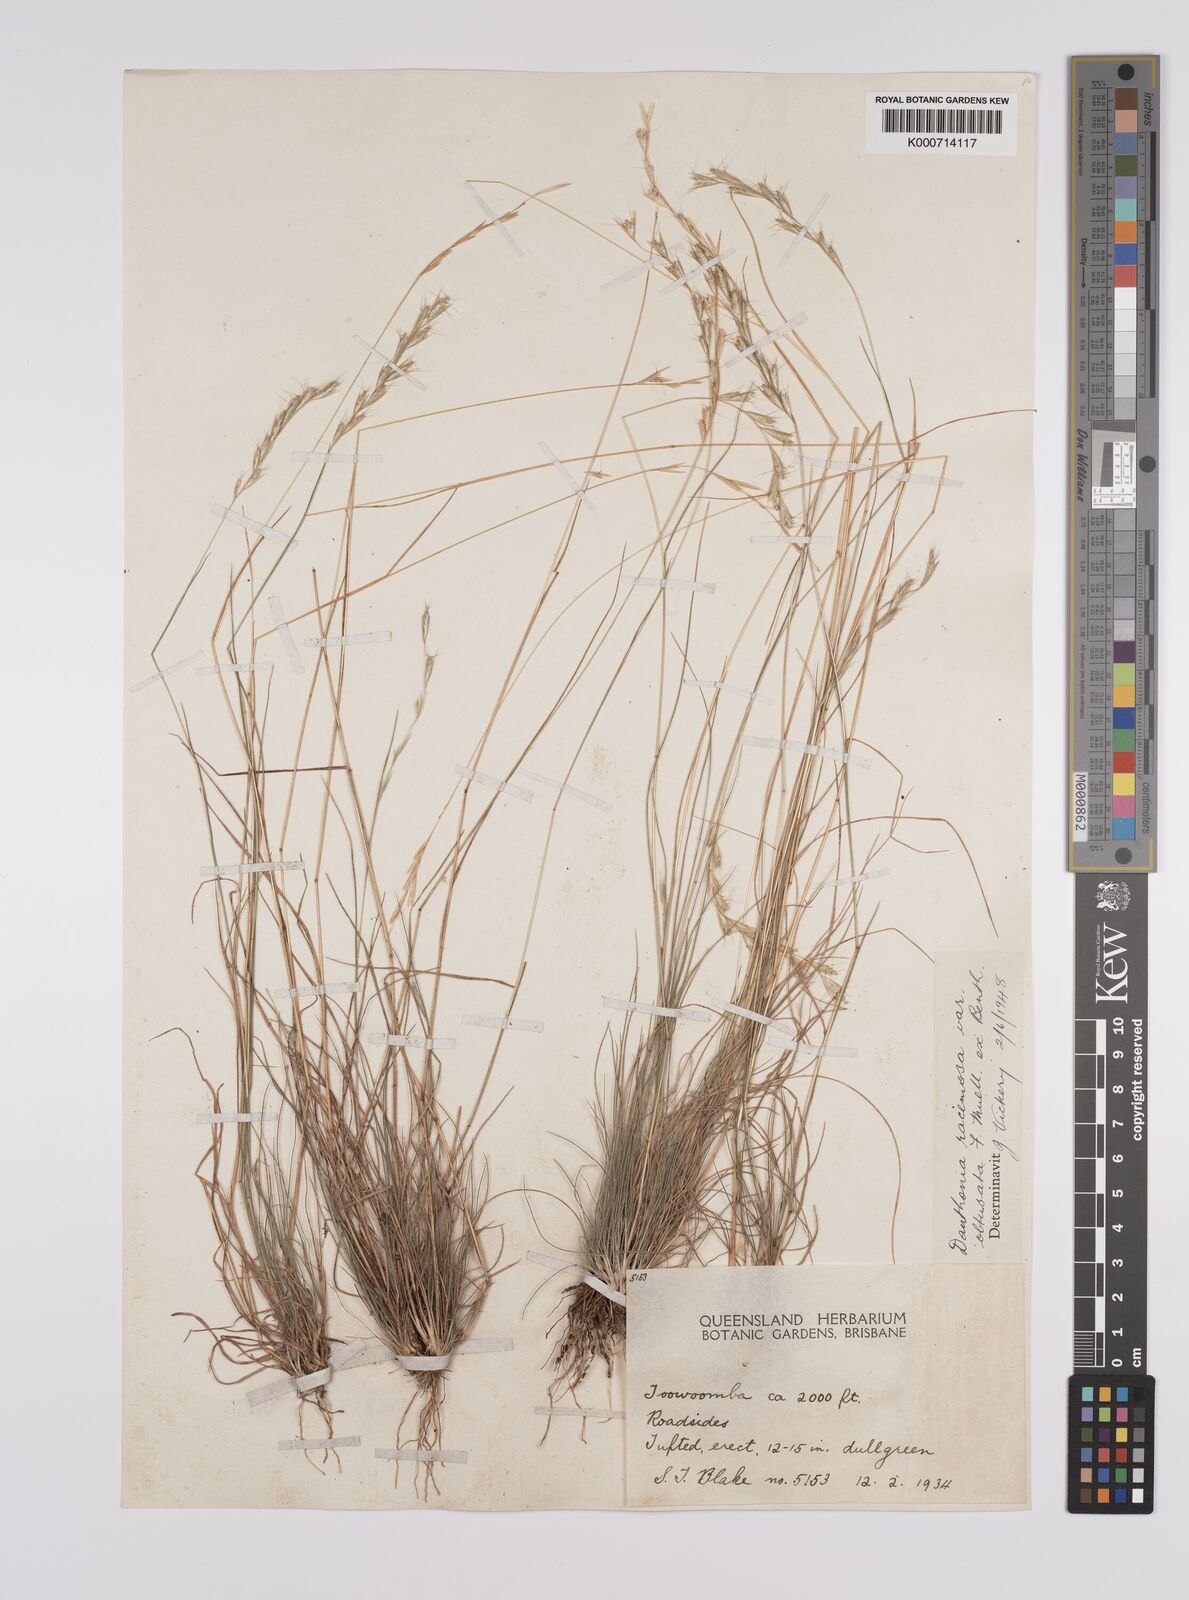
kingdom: Plantae
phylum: Tracheophyta
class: Liliopsida
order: Poales
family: Poaceae
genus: Rytidosperma
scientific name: Rytidosperma racemosum
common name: Wallaby-grass
